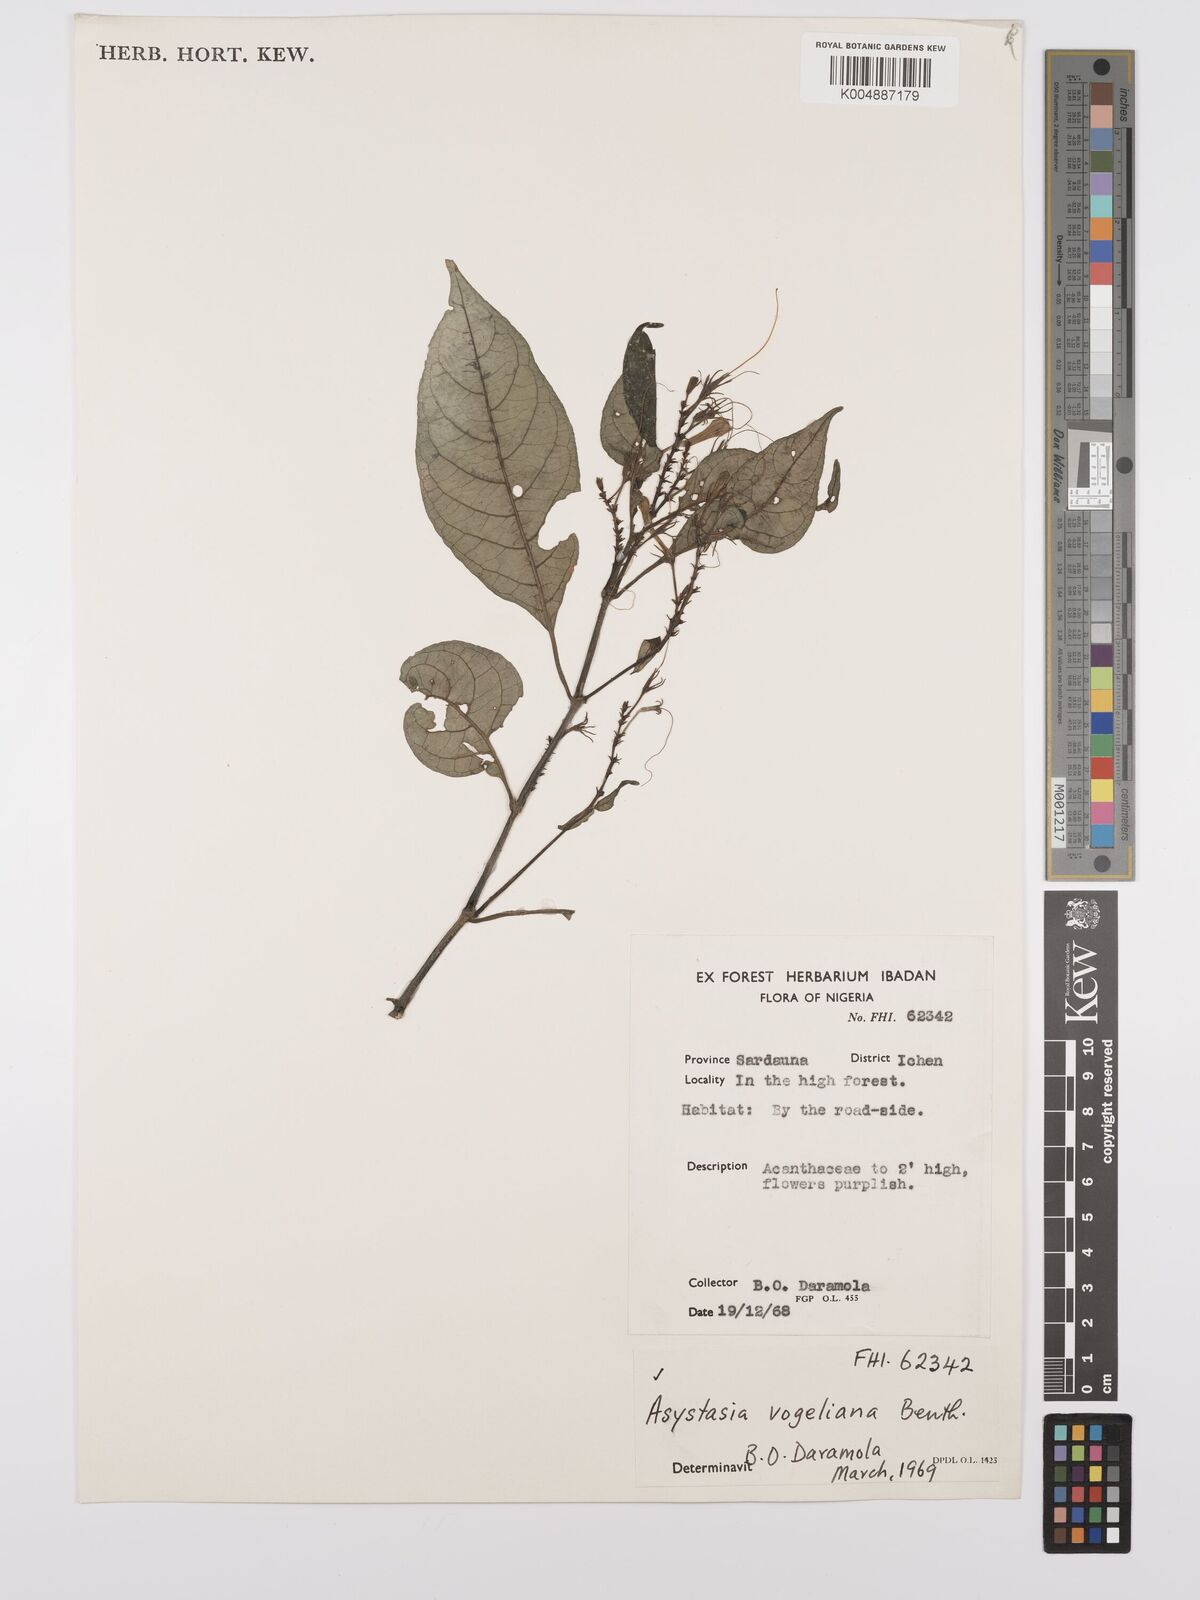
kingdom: Plantae
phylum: Tracheophyta
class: Magnoliopsida
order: Lamiales
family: Acanthaceae
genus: Asystasia
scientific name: Asystasia vogeliana
